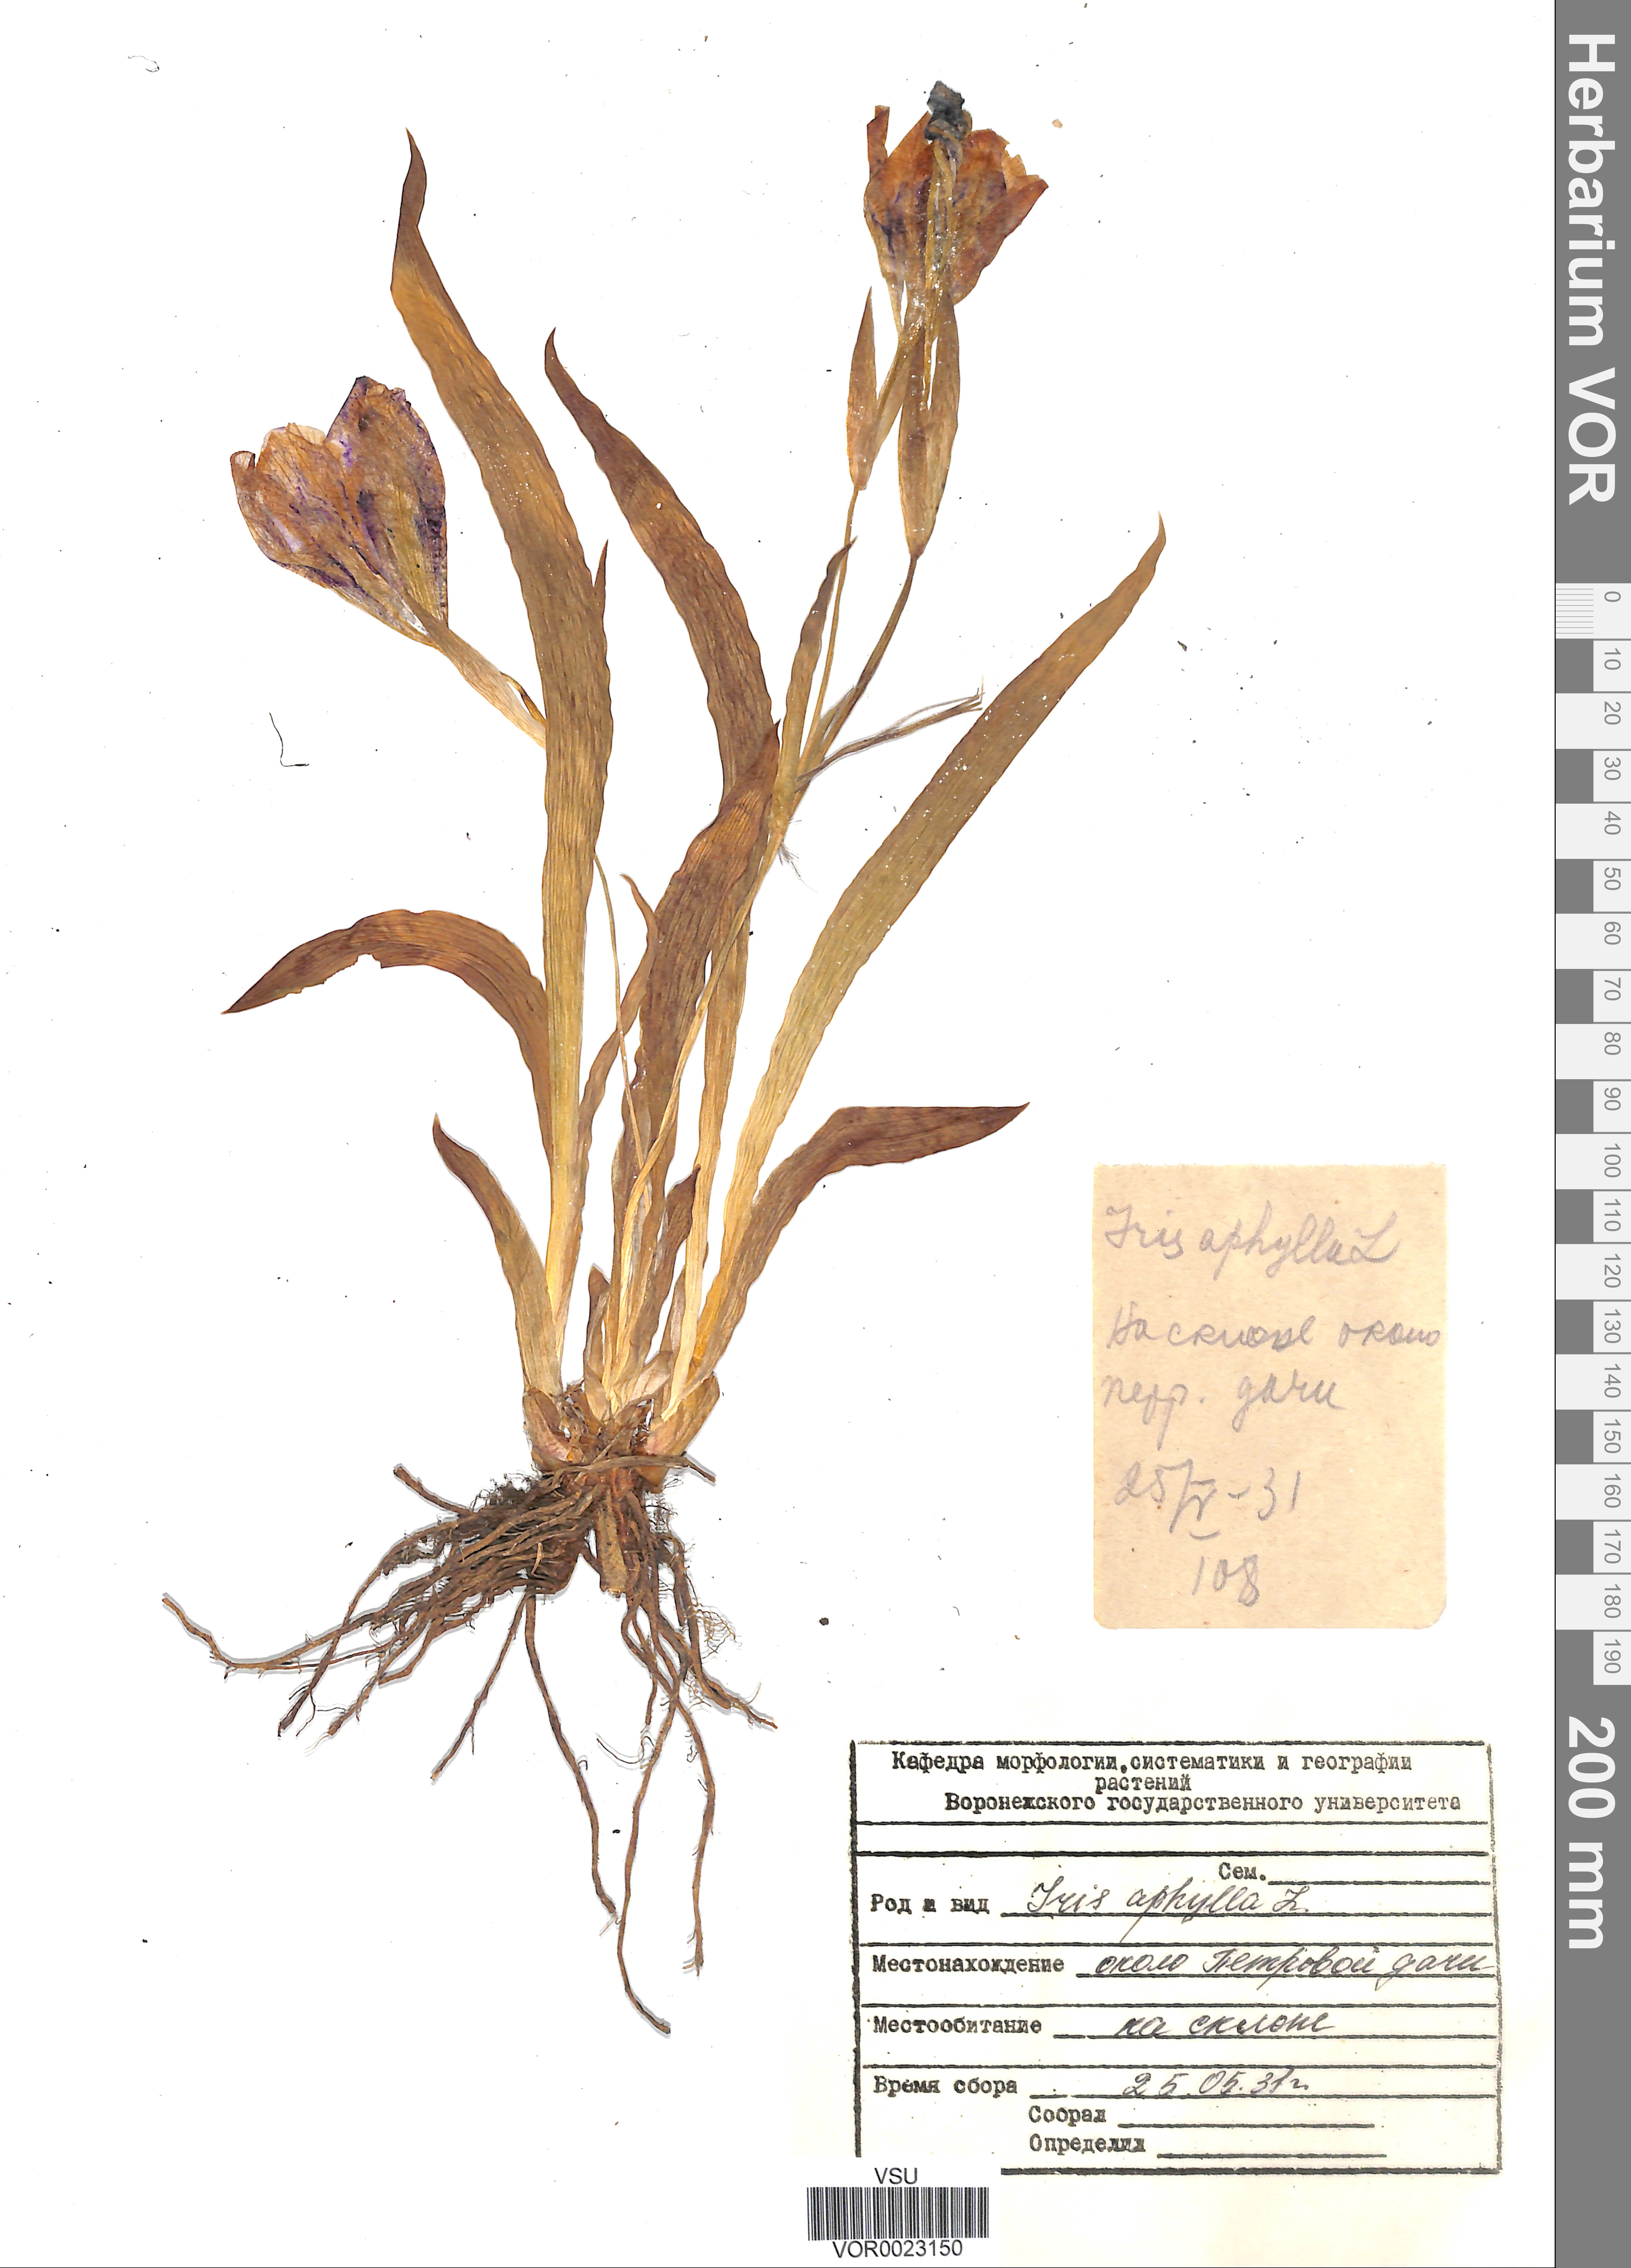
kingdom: Plantae
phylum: Tracheophyta
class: Liliopsida
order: Asparagales
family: Iridaceae
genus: Iris
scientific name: Iris aphylla
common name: Stool iris
